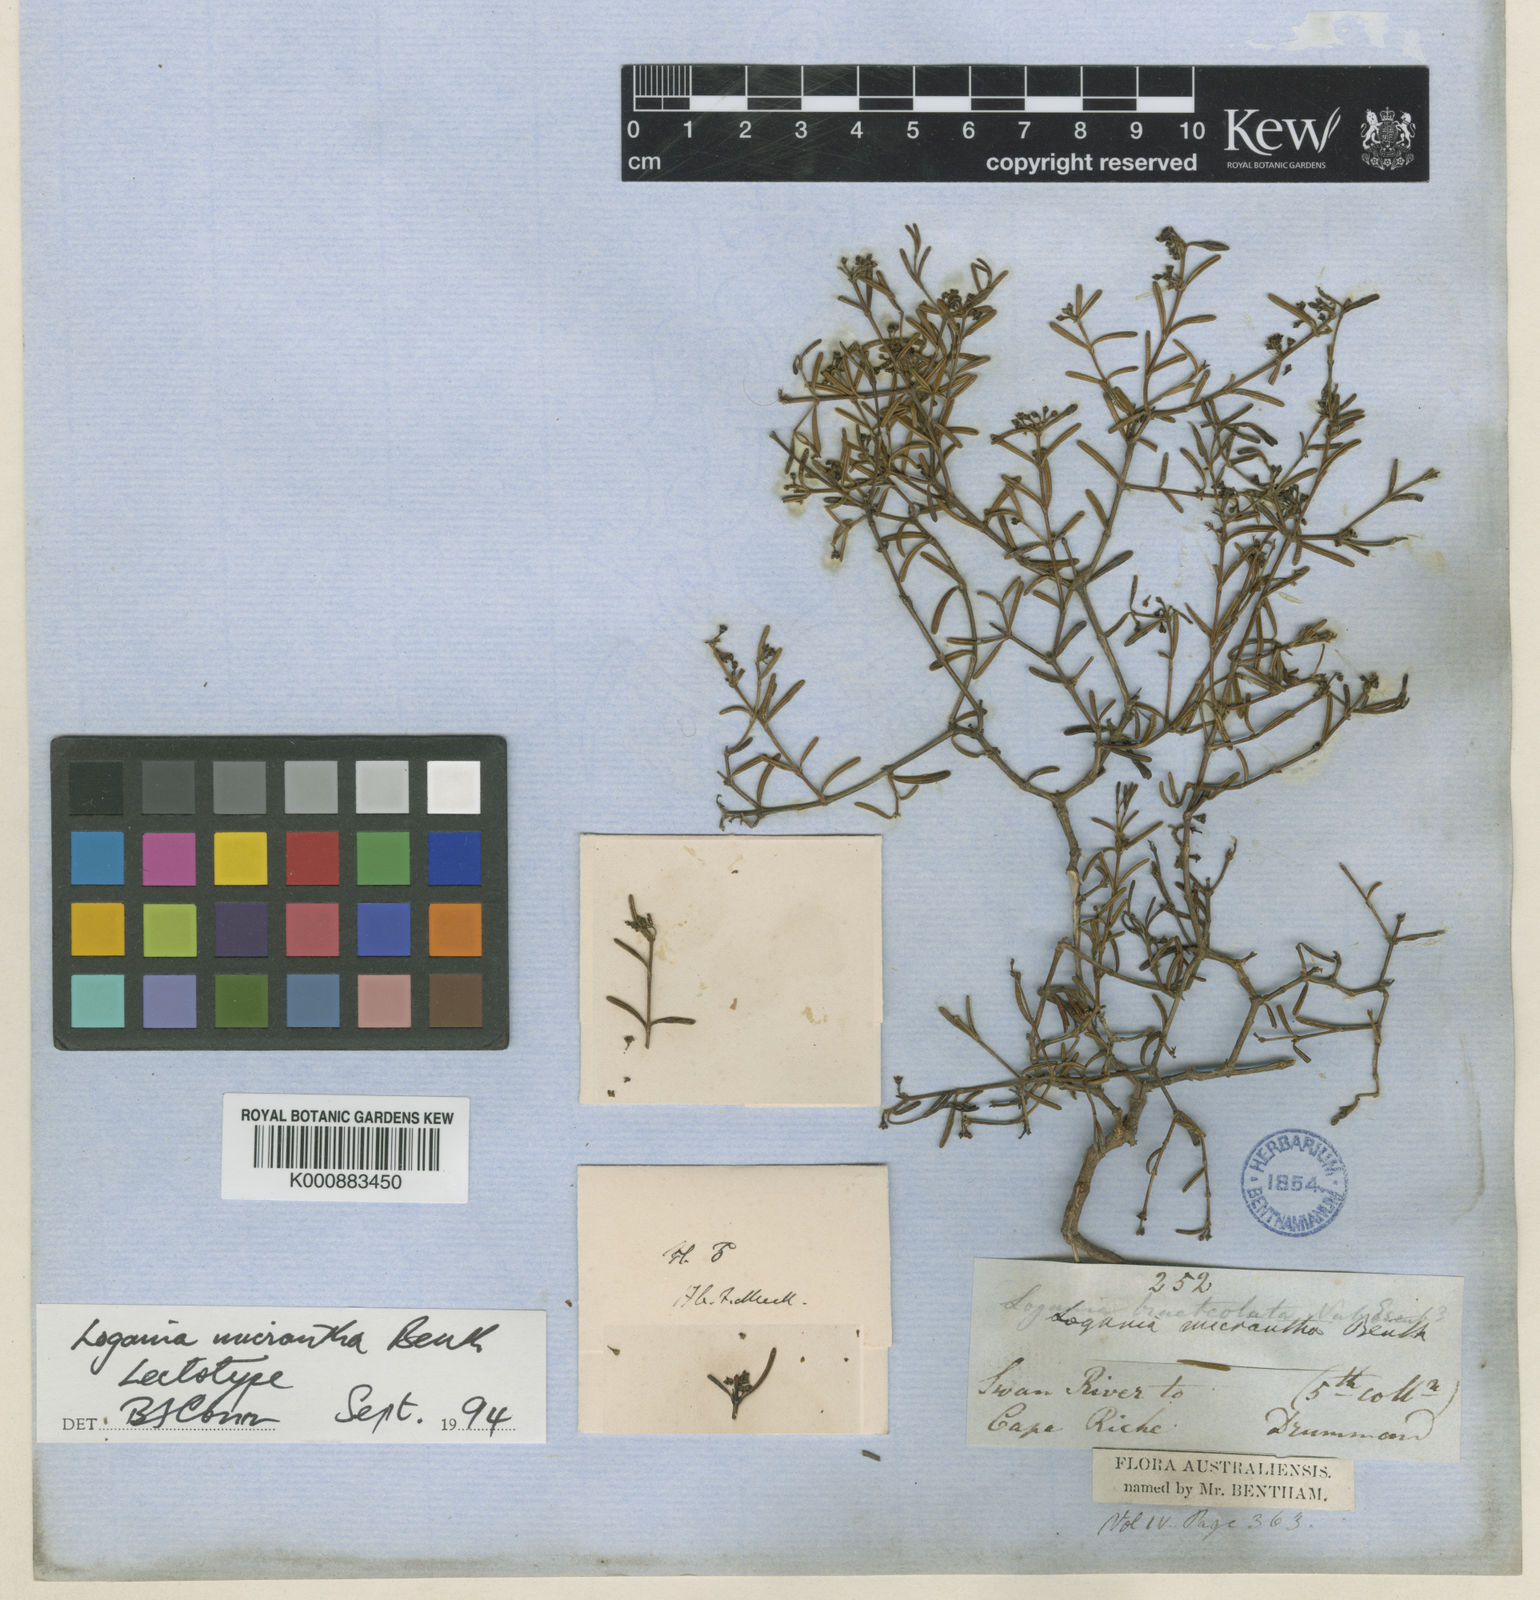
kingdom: Plantae
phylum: Tracheophyta
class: Magnoliopsida
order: Gentianales
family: Loganiaceae
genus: Logania
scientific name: Logania micrantha
